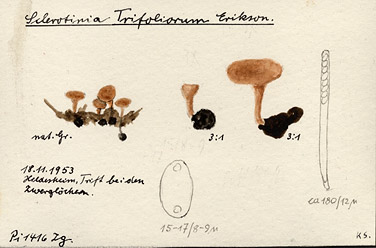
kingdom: Fungi
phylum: Ascomycota
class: Leotiomycetes
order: Helotiales
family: Sclerotiniaceae
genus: Sclerotinia
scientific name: Sclerotinia trifoliorum
